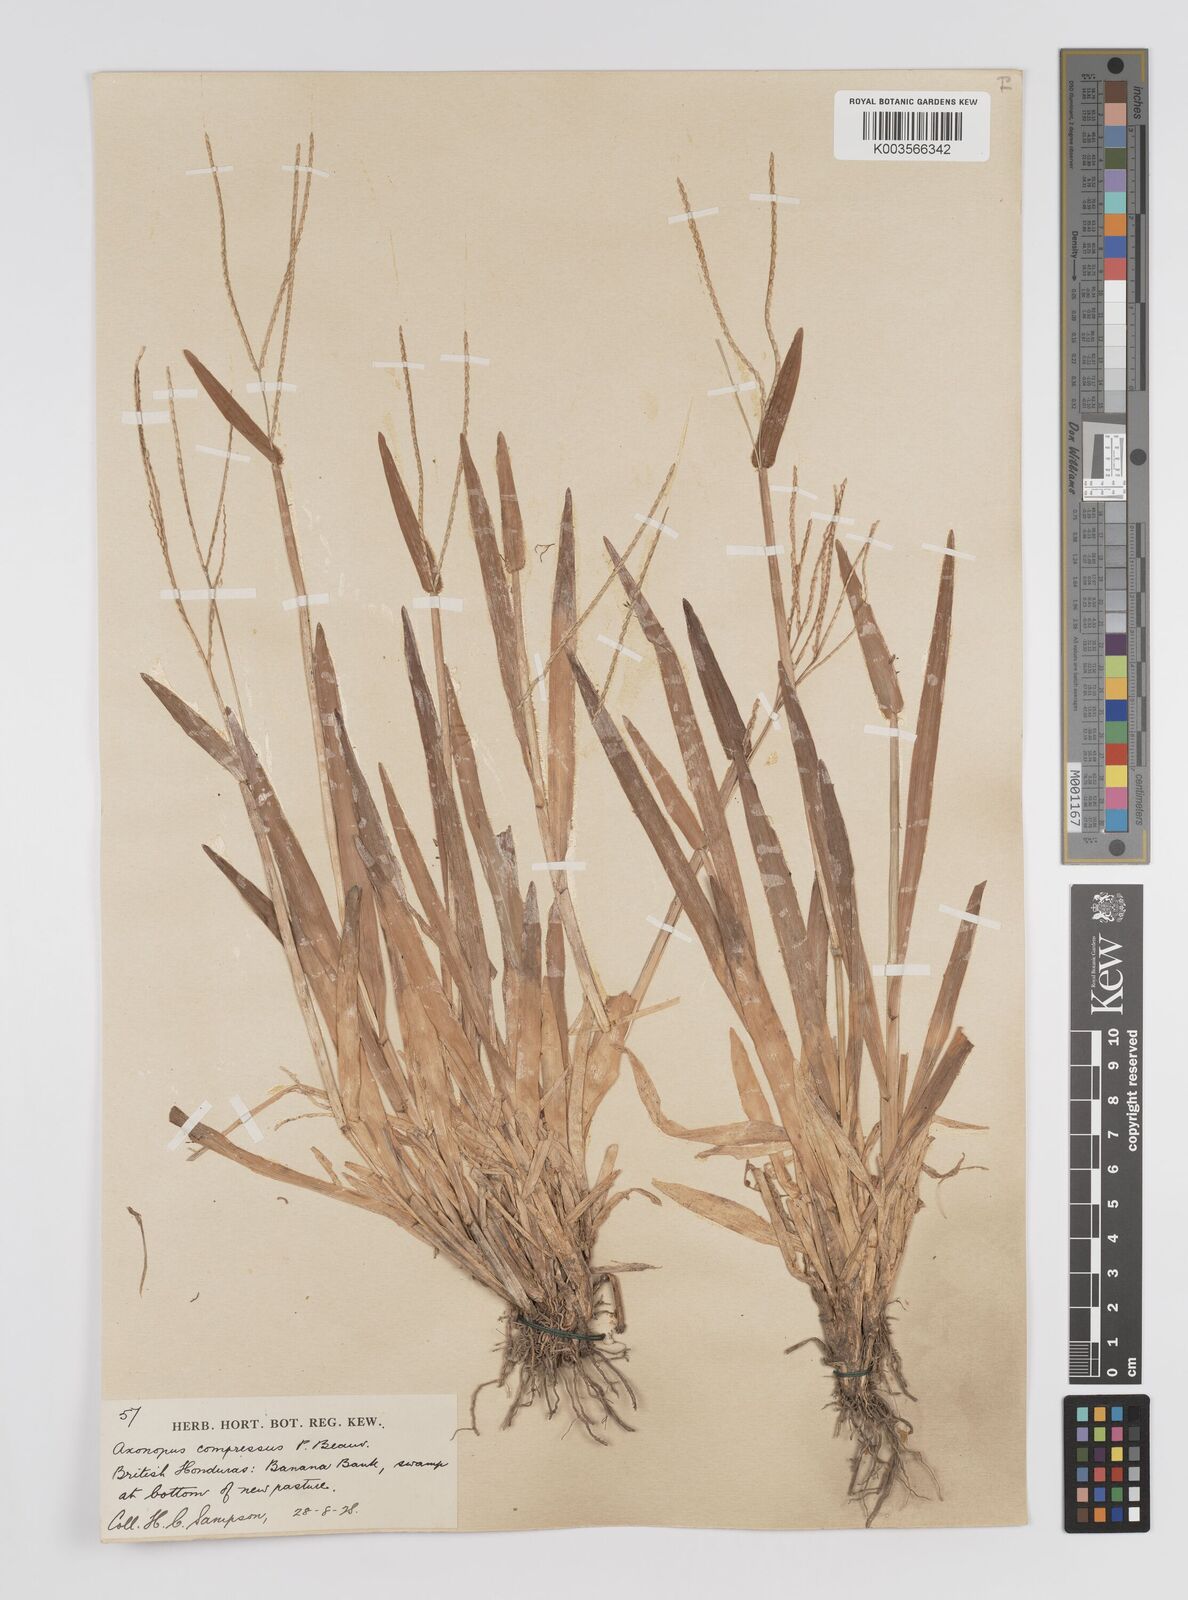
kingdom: Plantae
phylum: Tracheophyta
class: Liliopsida
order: Poales
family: Poaceae
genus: Axonopus
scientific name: Axonopus compressus
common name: American carpet grass
